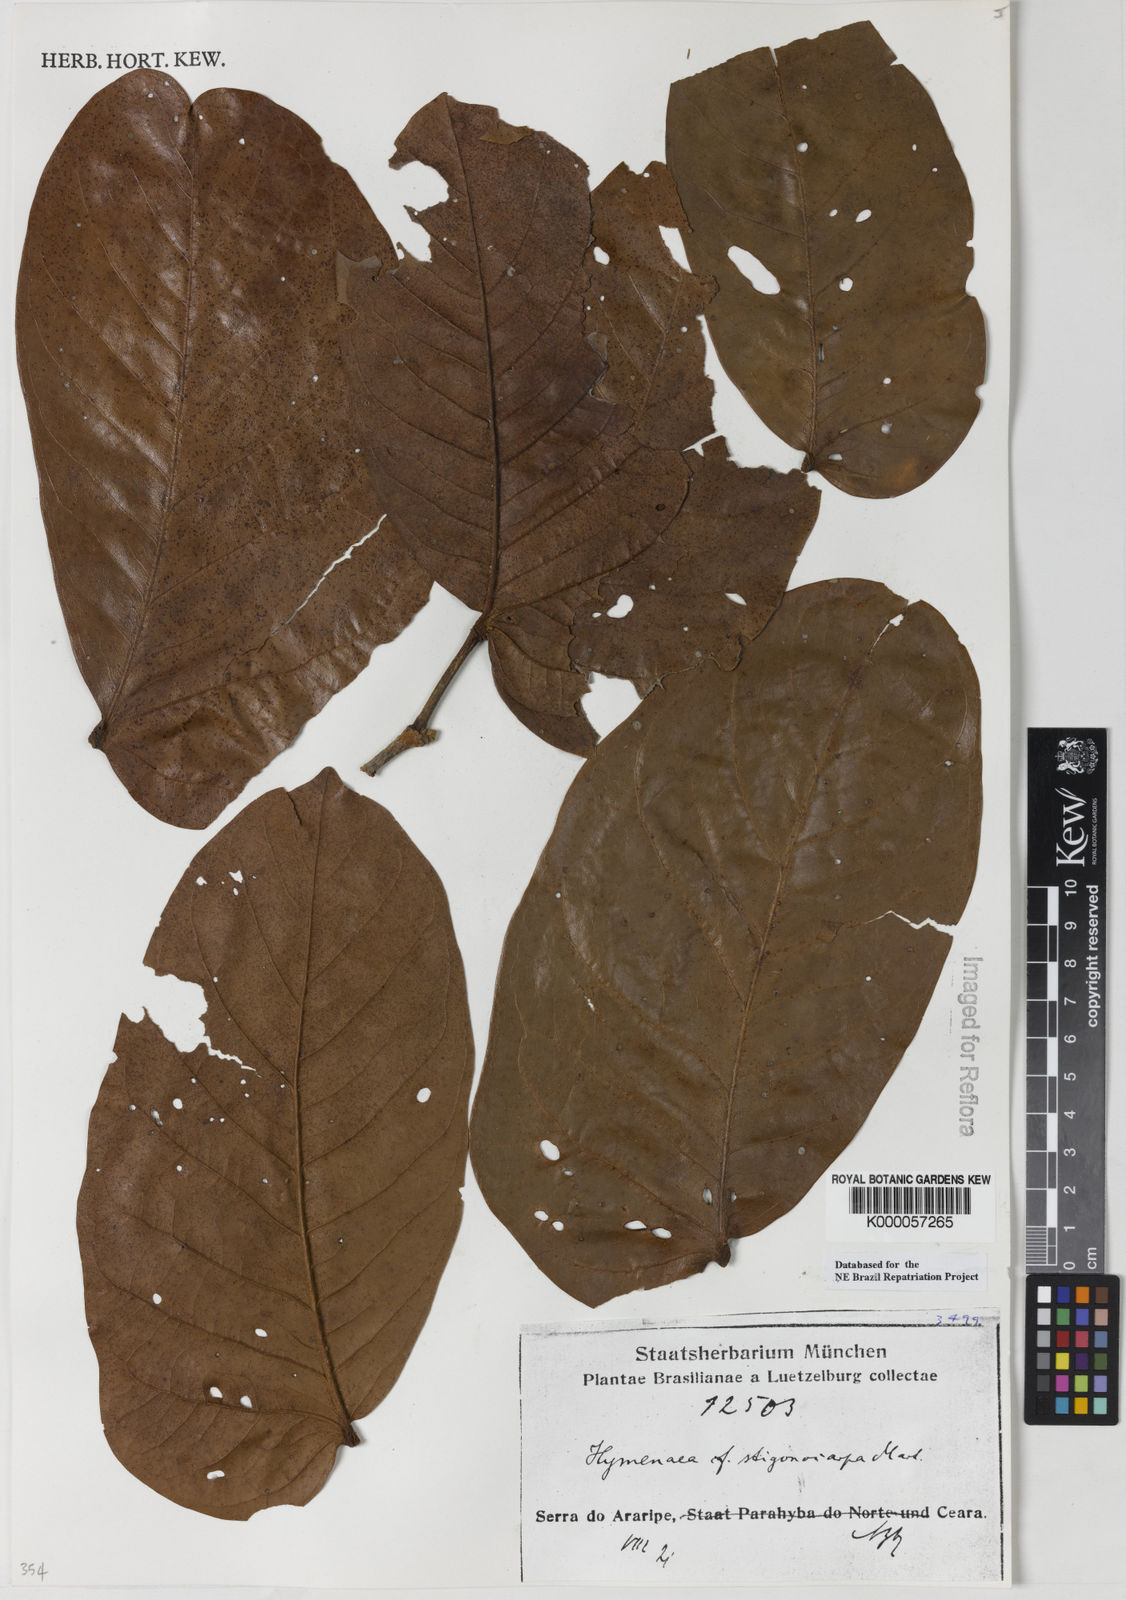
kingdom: Plantae
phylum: Tracheophyta
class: Magnoliopsida
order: Fabales
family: Fabaceae
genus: Hymenaea
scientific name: Hymenaea stigonocarpa
